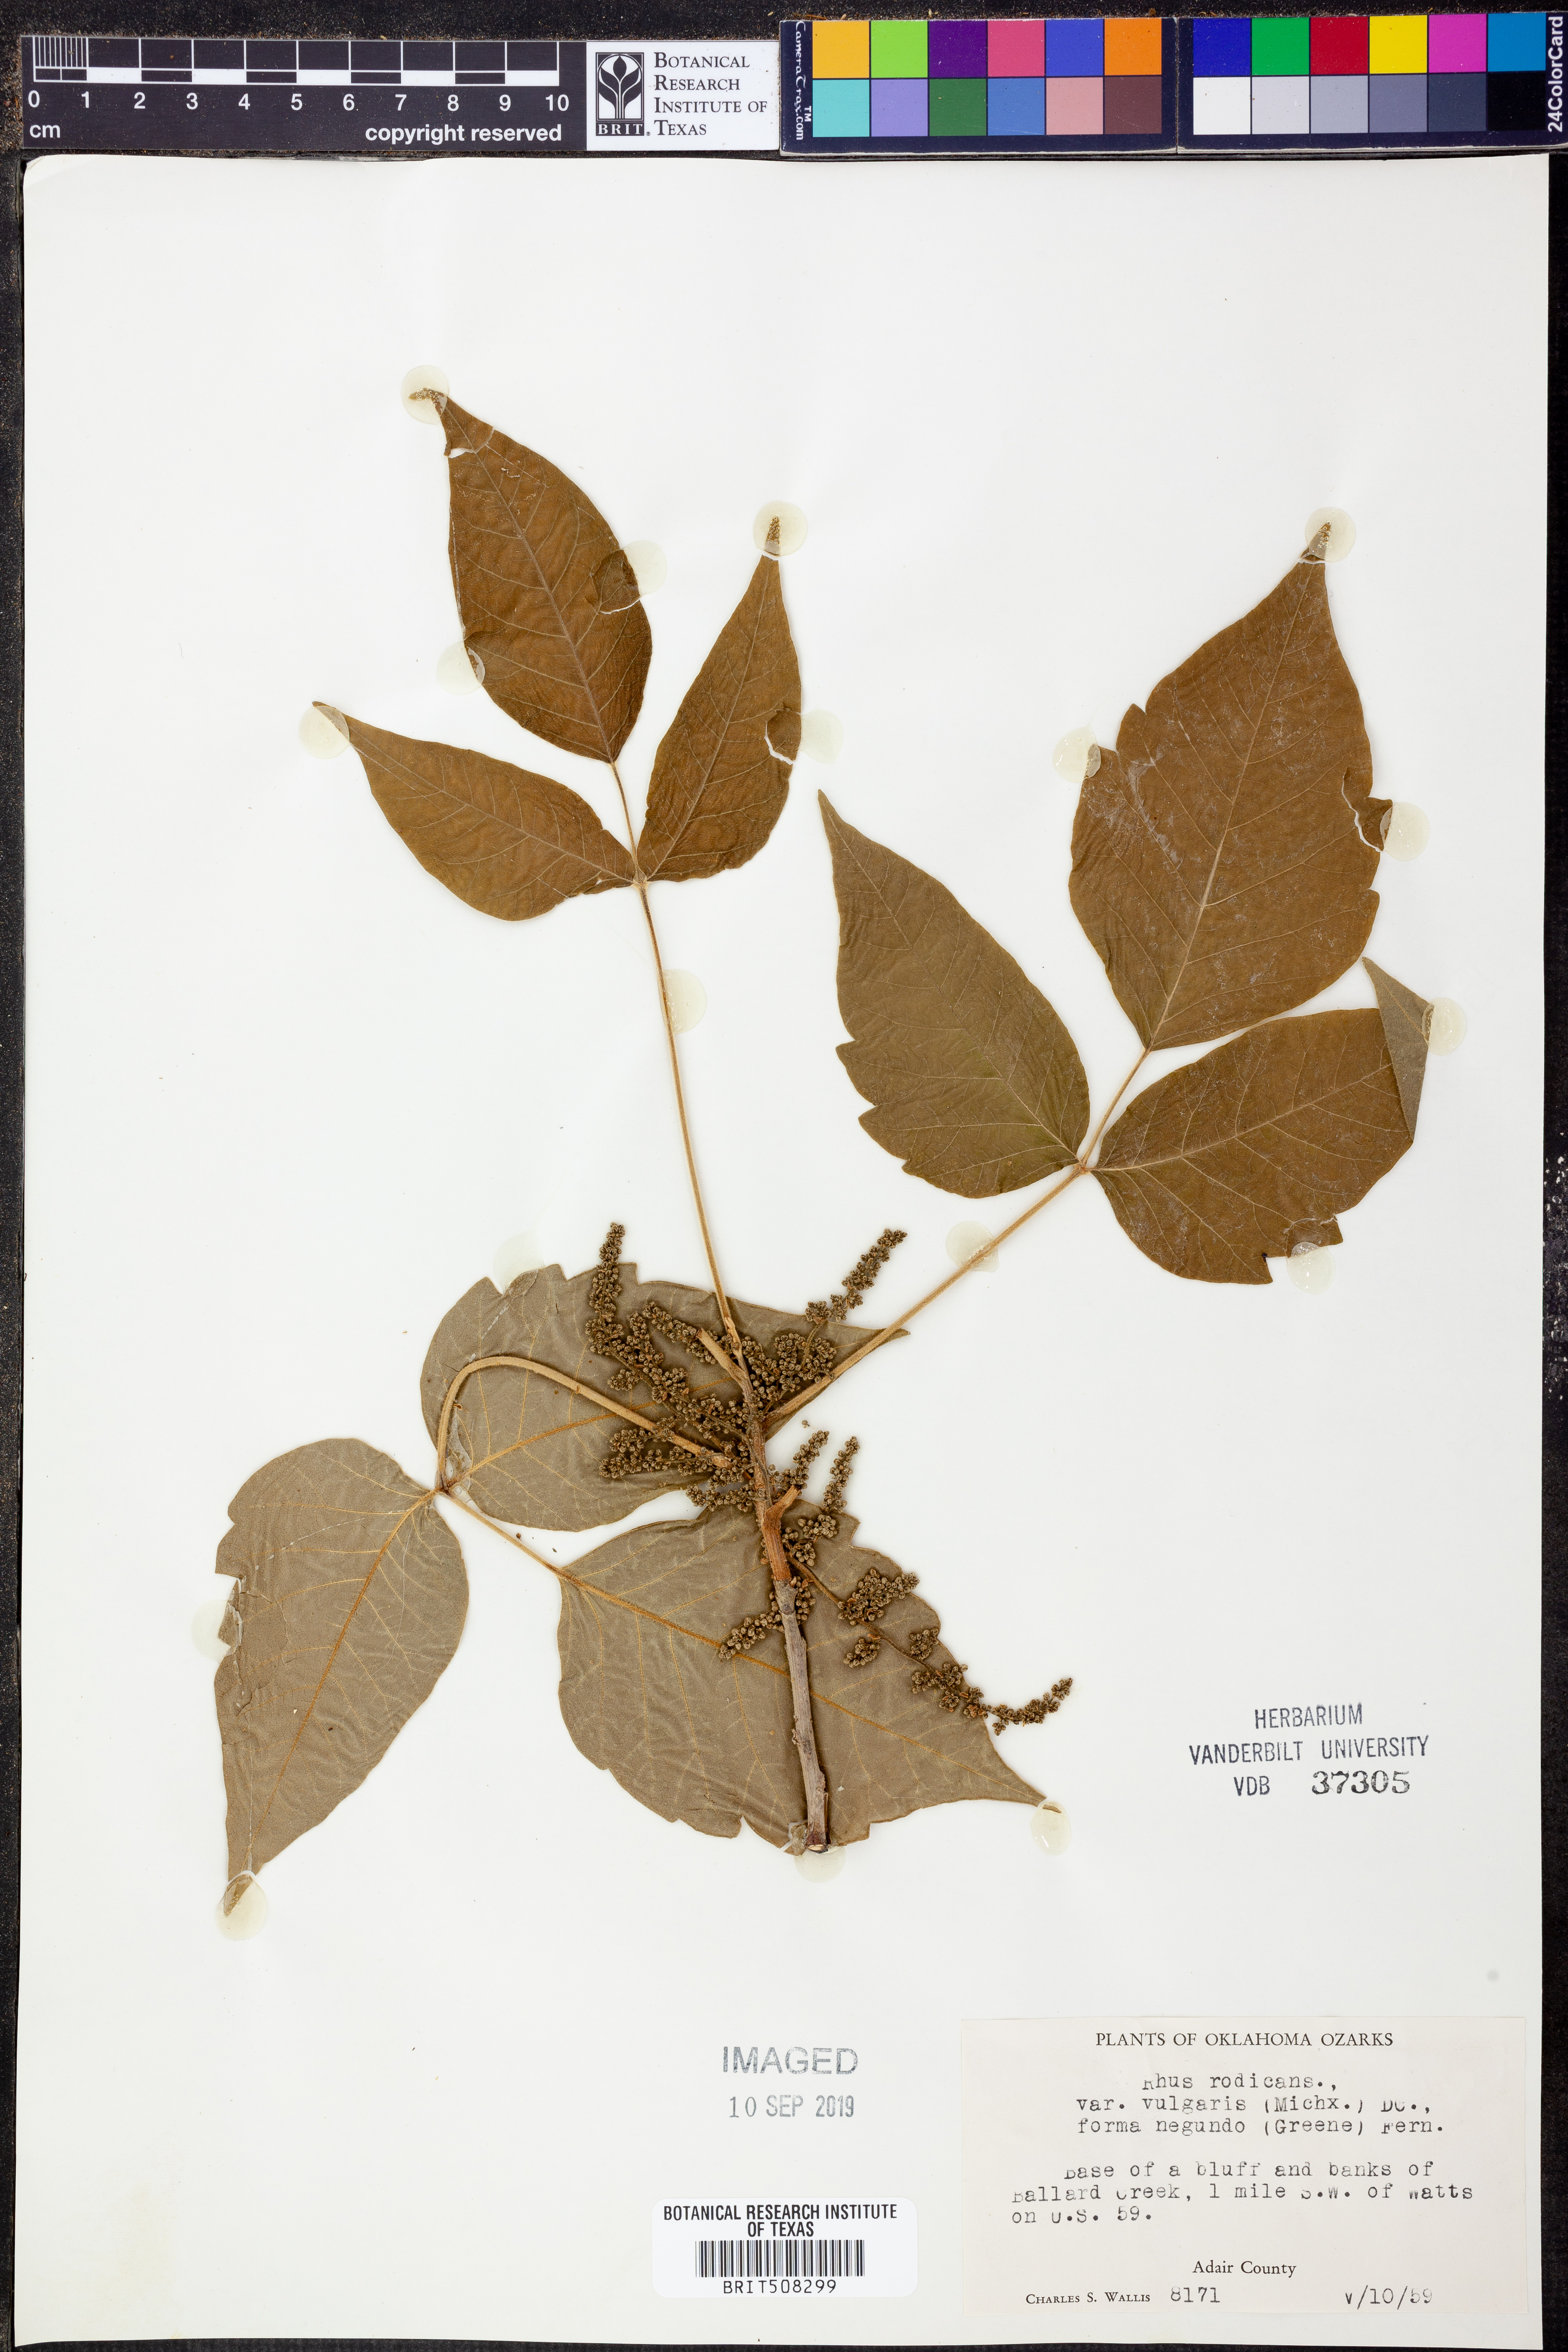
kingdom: Plantae
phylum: Tracheophyta
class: Magnoliopsida
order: Sapindales
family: Anacardiaceae
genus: Toxicodendron
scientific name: Toxicodendron rydbergii
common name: Rydberg's poison-ivy
